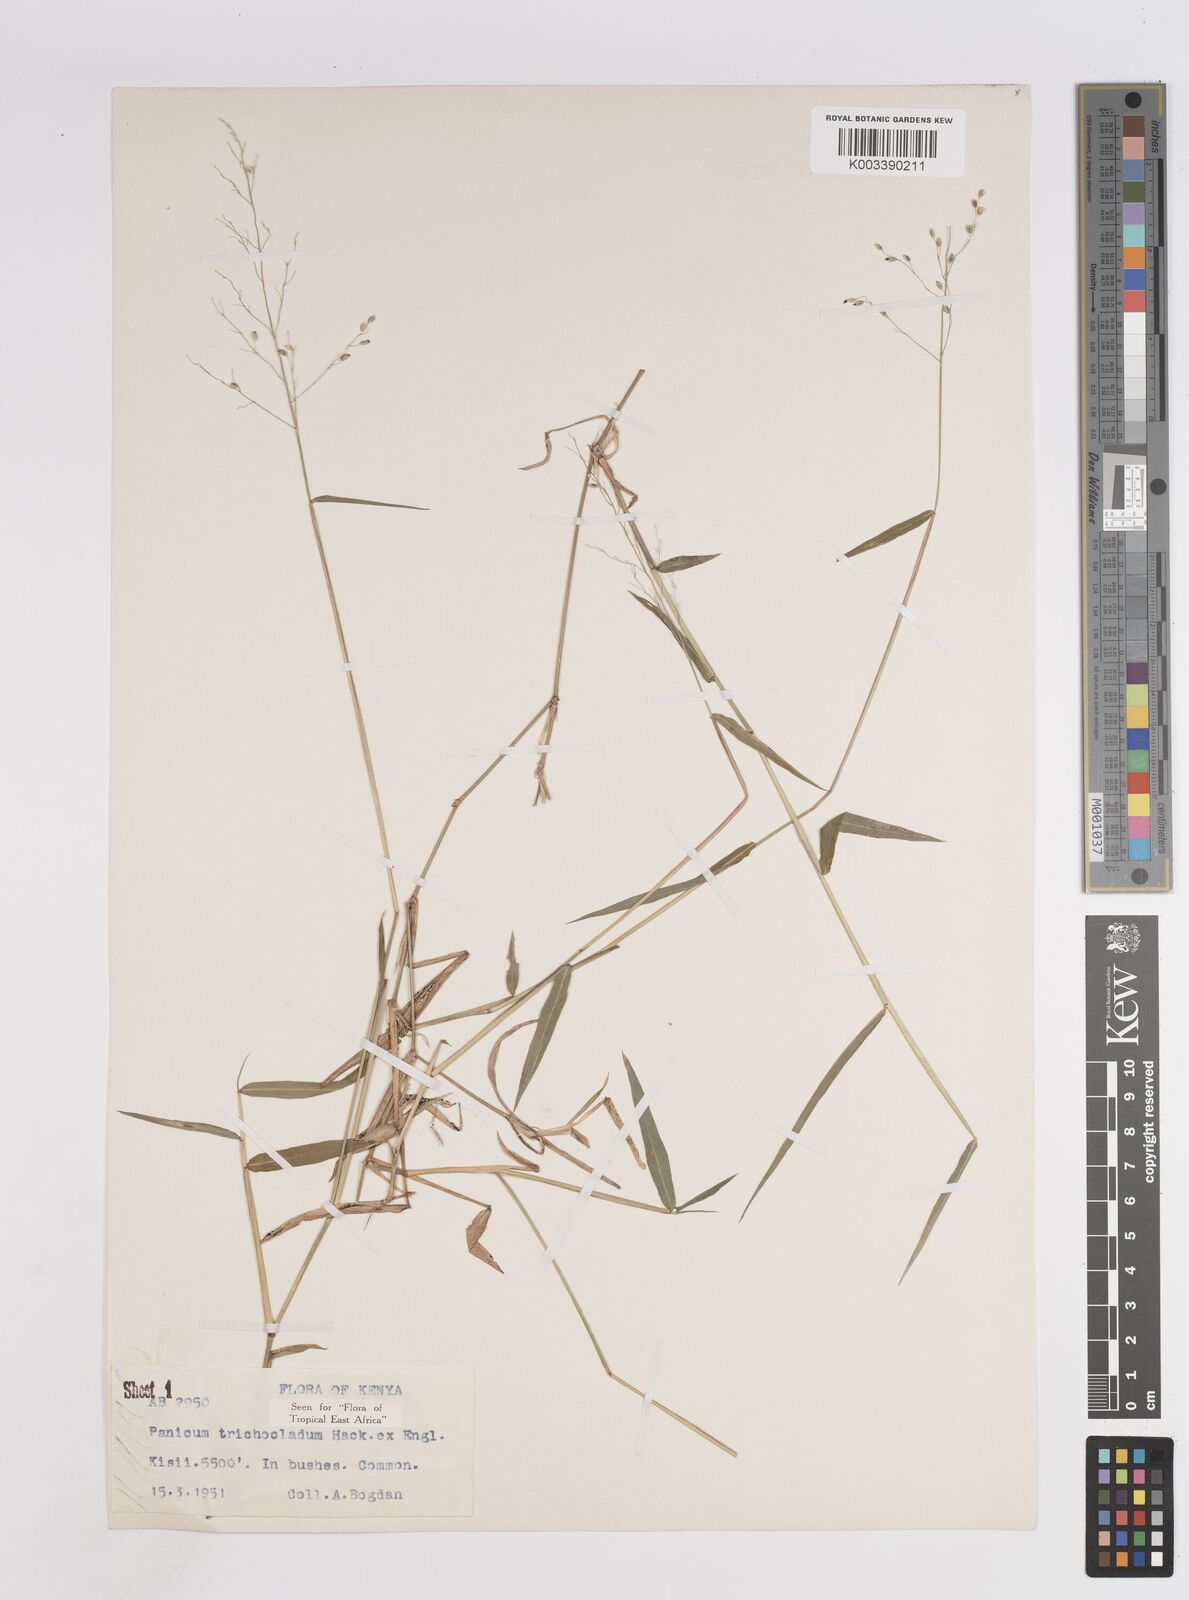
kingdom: Plantae
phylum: Tracheophyta
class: Liliopsida
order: Poales
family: Poaceae
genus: Panicum
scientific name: Panicum trichocladum
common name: Donkey grass
